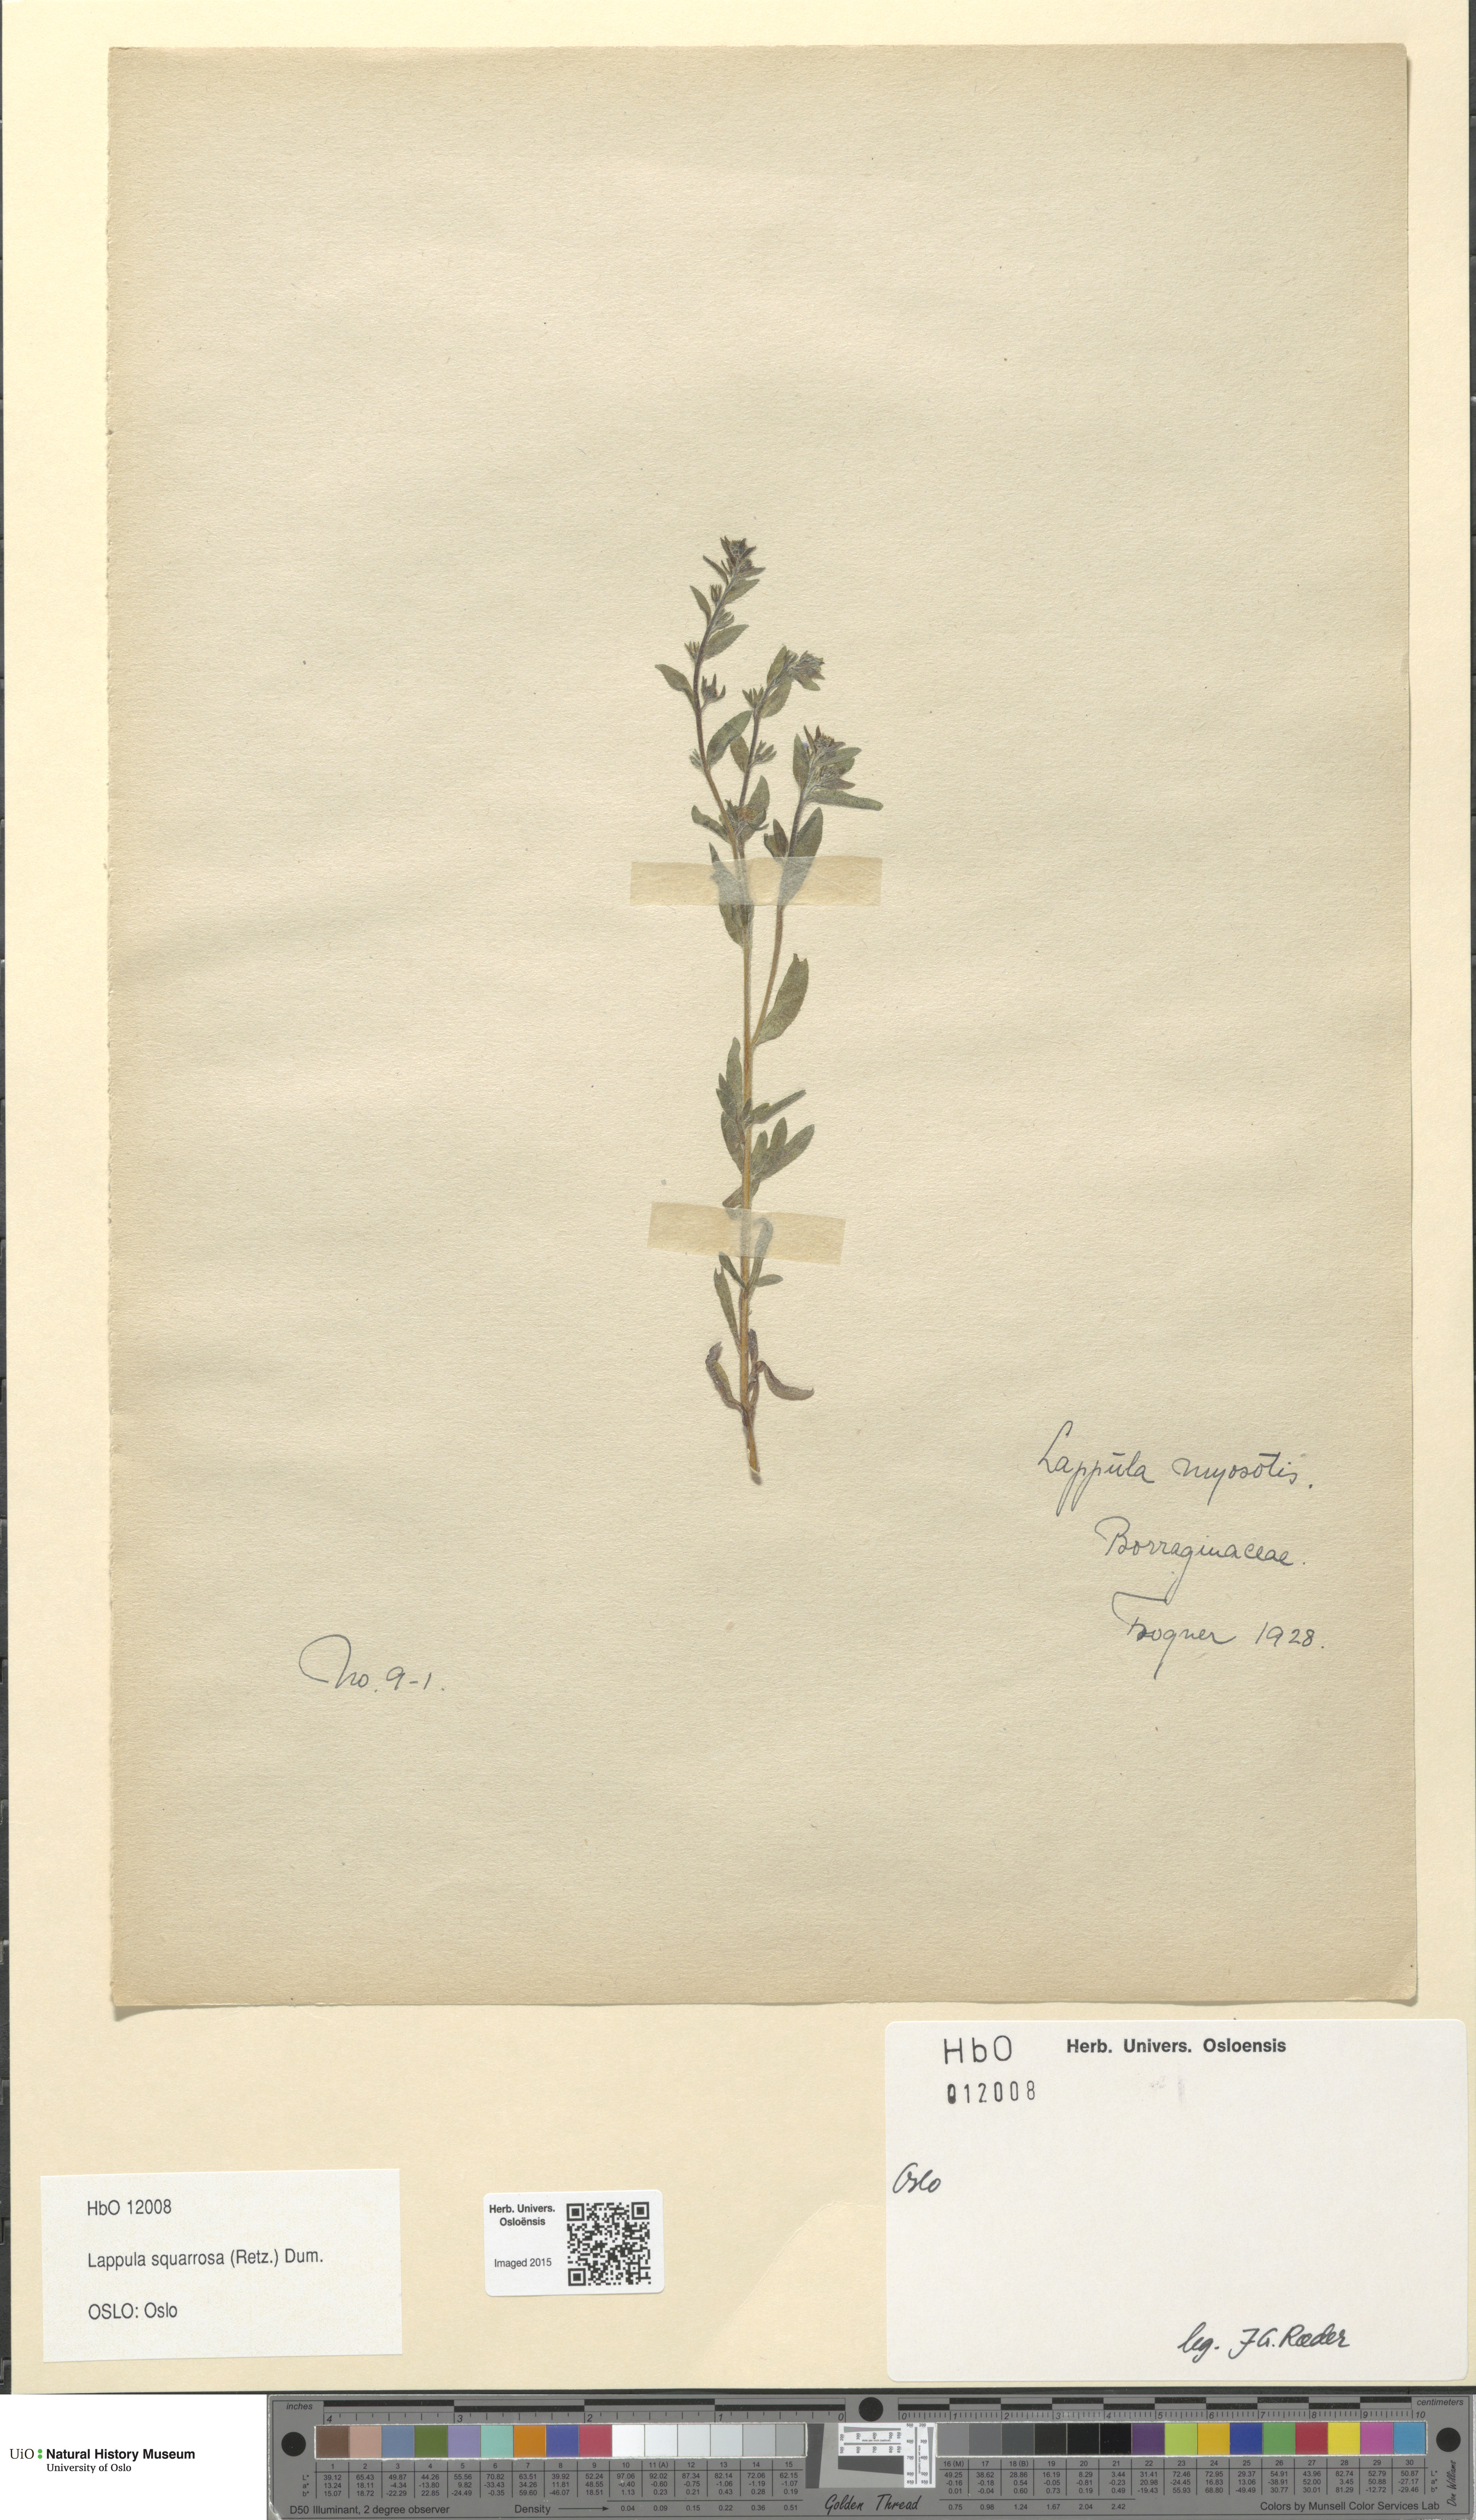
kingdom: Plantae
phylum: Tracheophyta
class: Magnoliopsida
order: Boraginales
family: Boraginaceae
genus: Lappula
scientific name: Lappula squarrosa
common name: European stickseed
